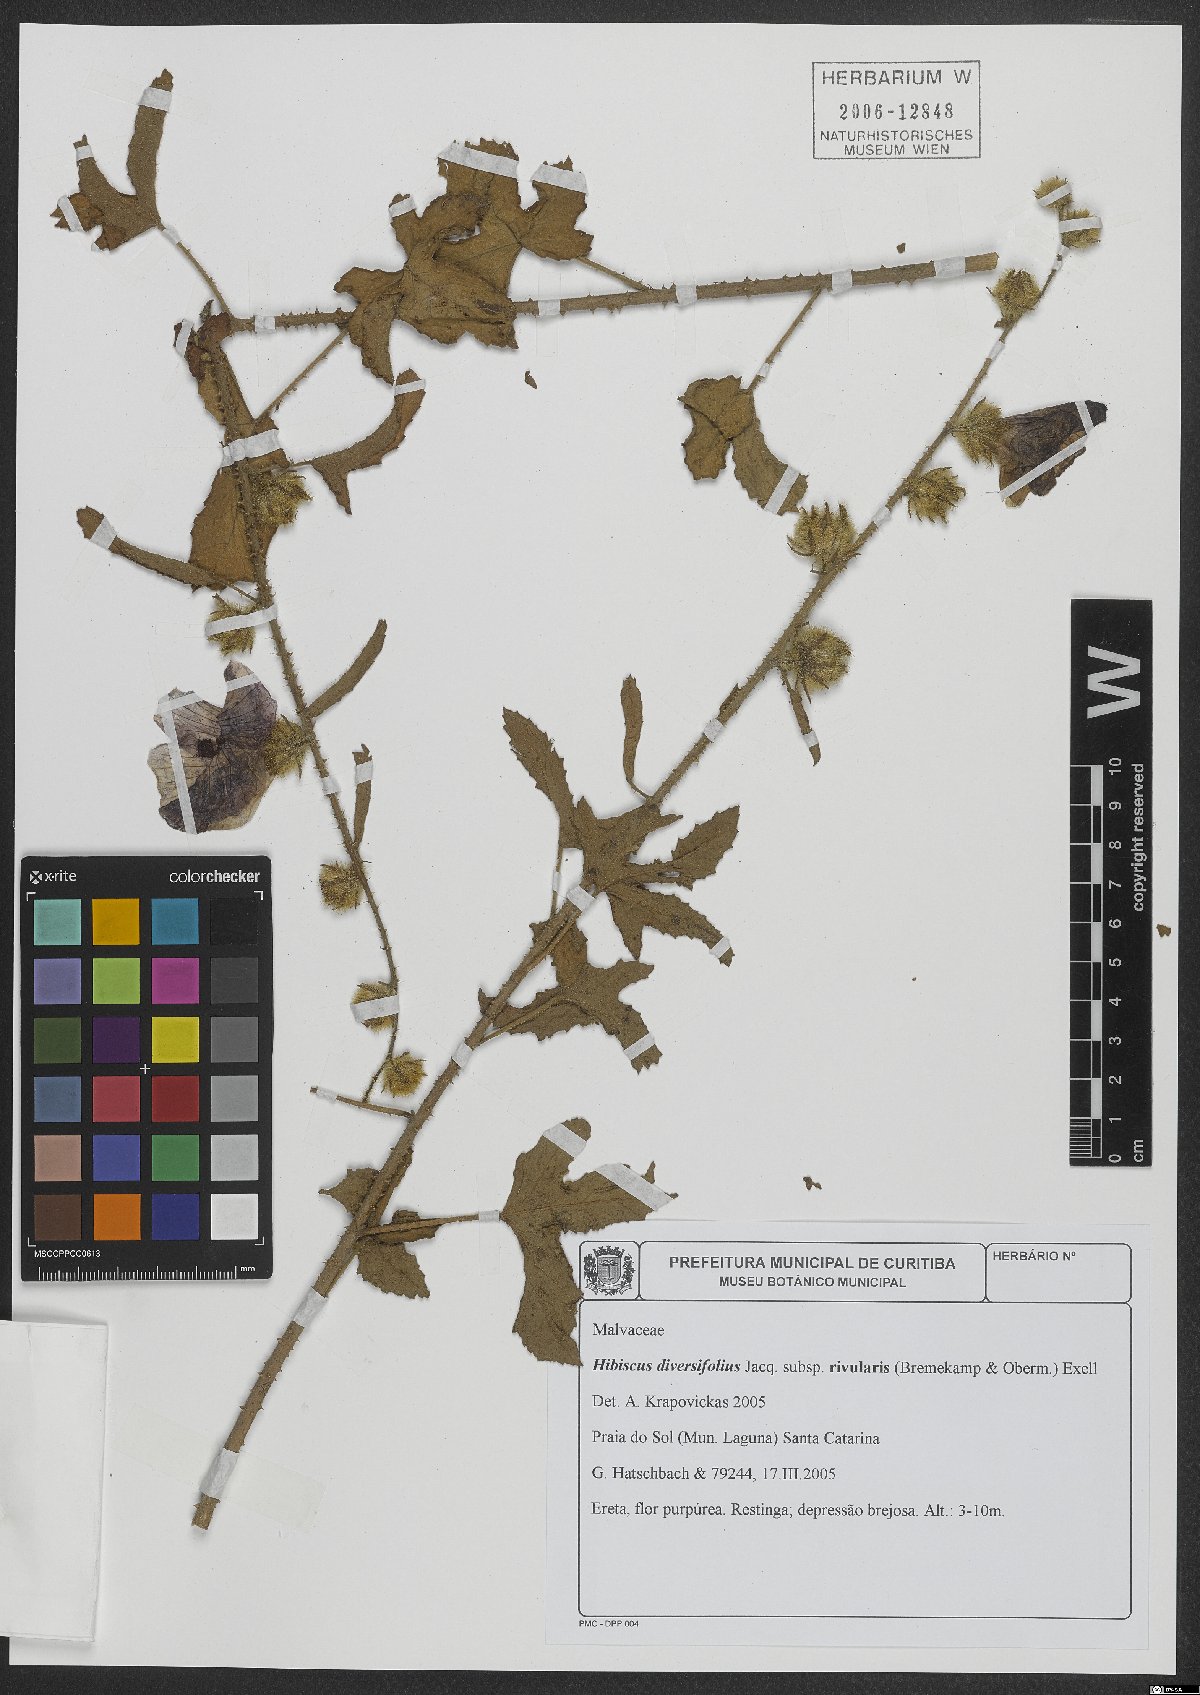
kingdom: Plantae
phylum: Tracheophyta
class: Magnoliopsida
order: Malvales
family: Malvaceae
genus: Hibiscus
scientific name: Hibiscus diversifolius
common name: Cape hibiscus
